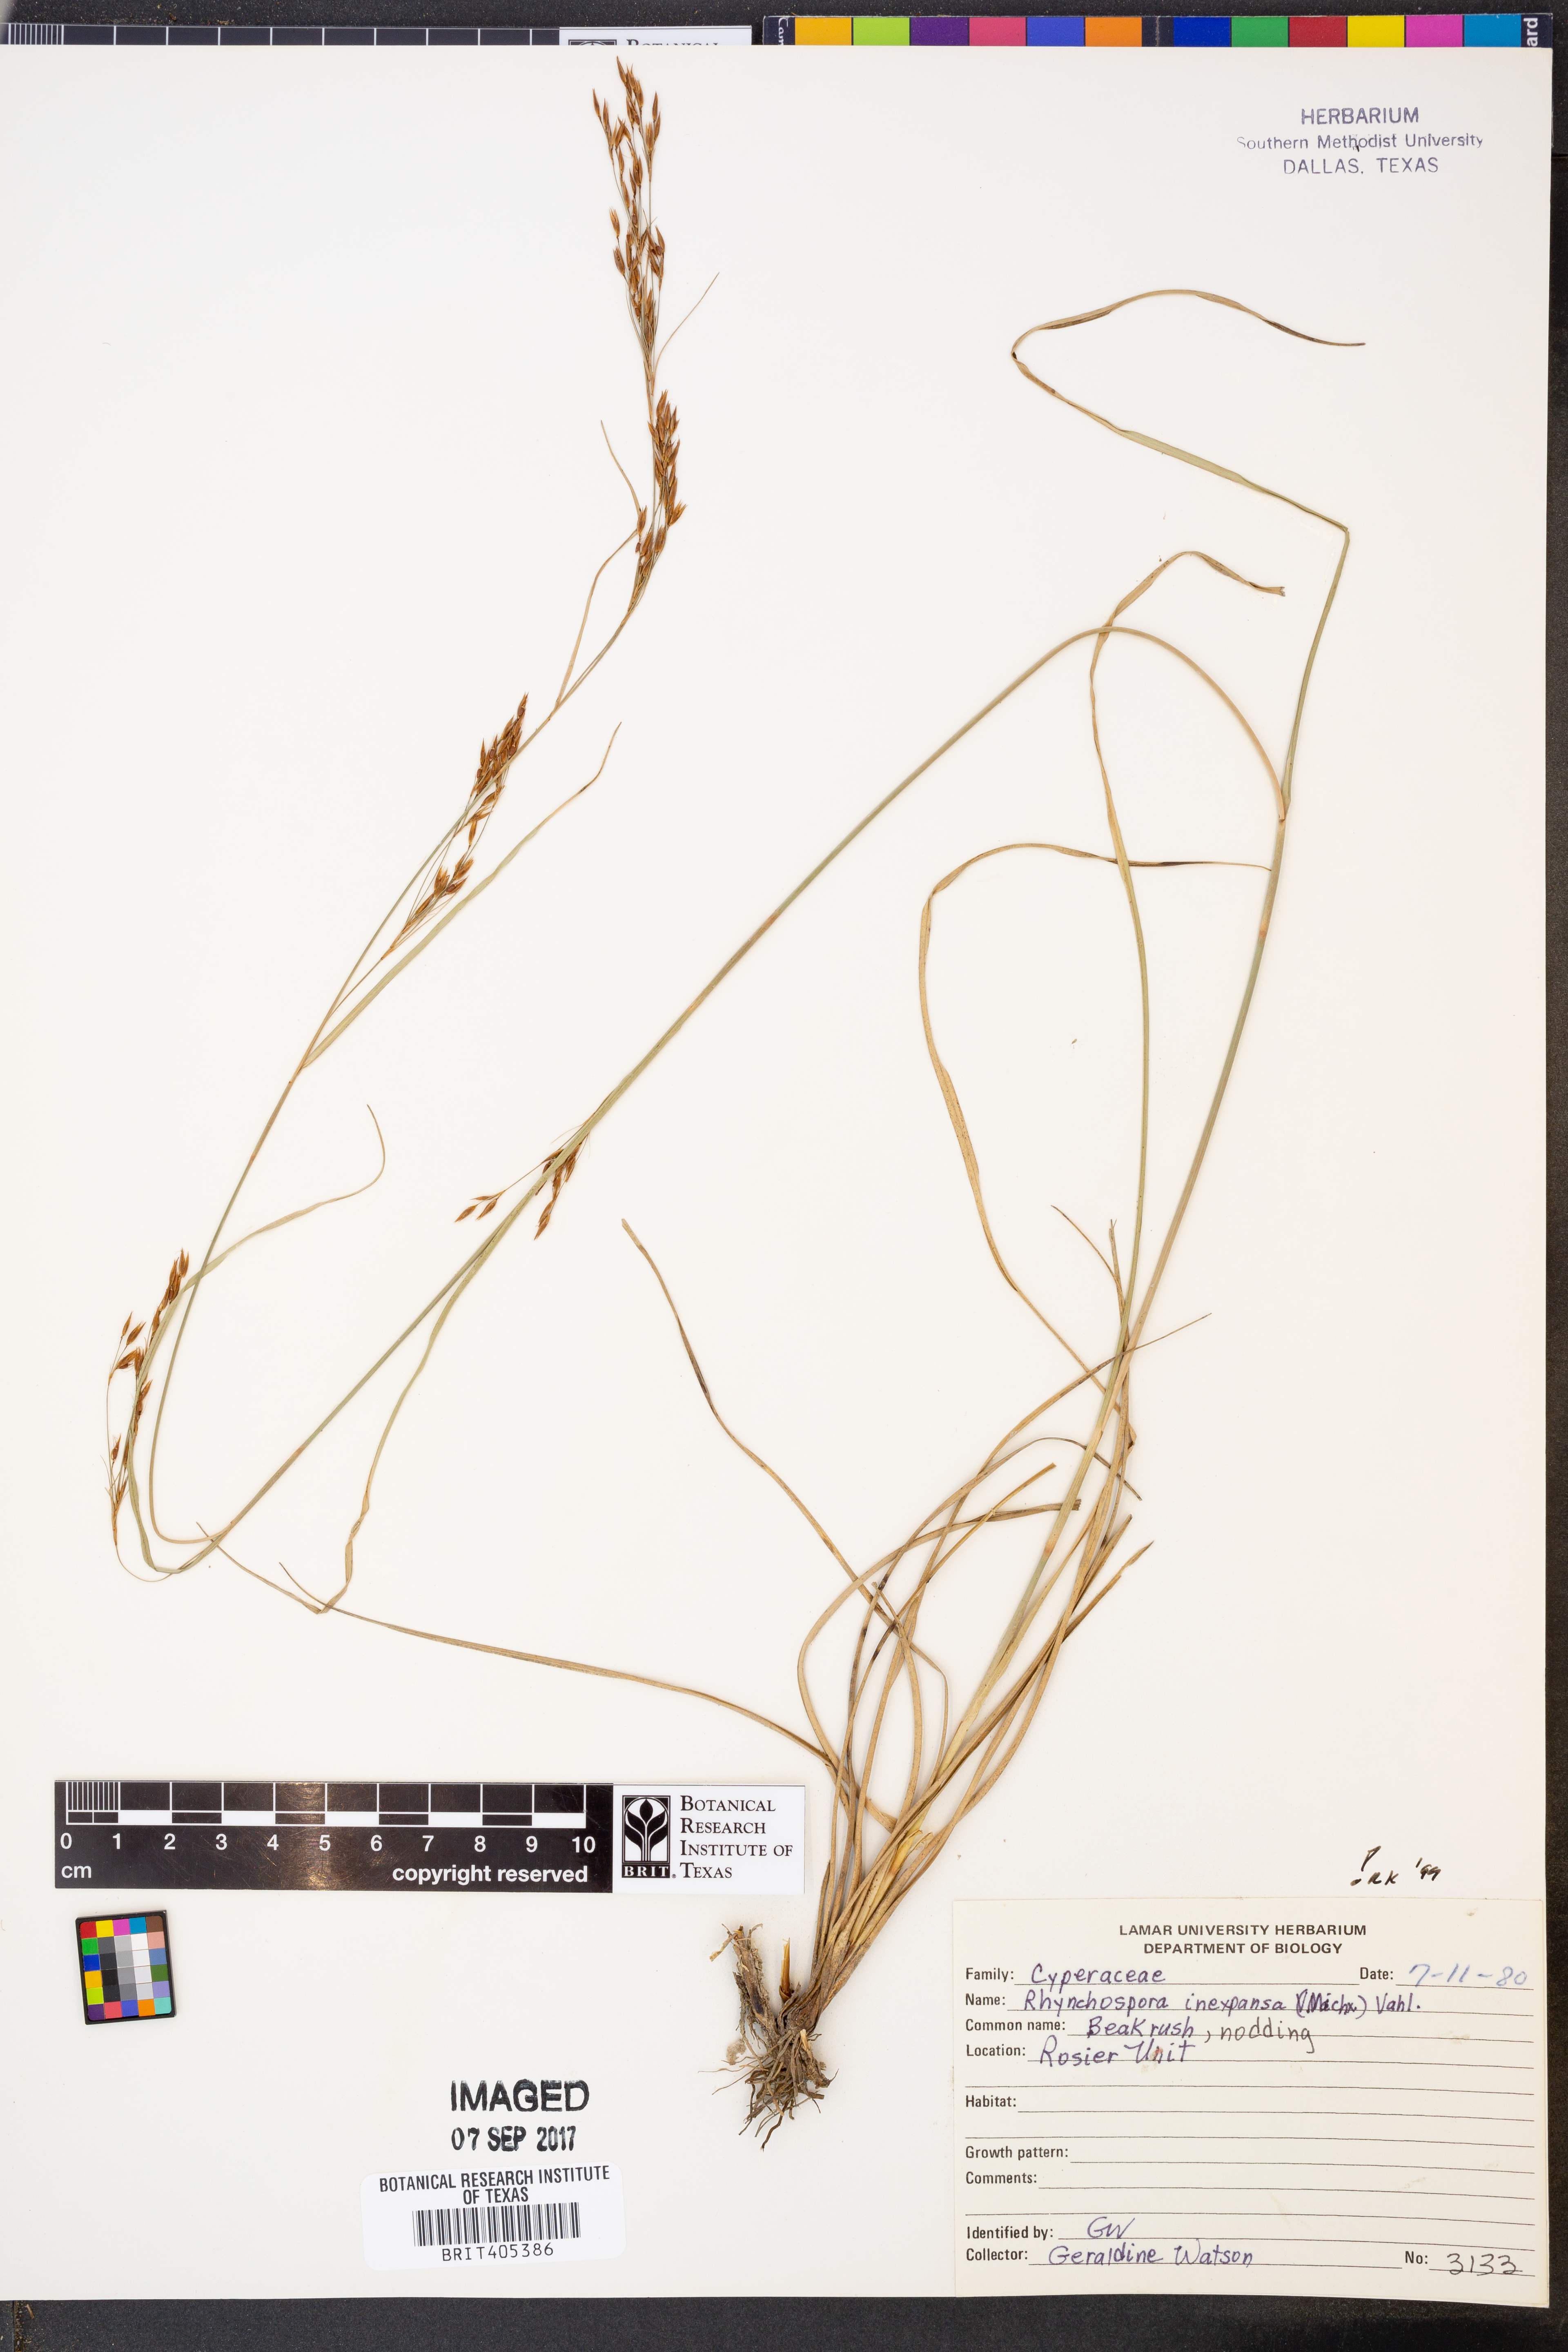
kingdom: Plantae
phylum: Tracheophyta
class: Liliopsida
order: Poales
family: Cyperaceae
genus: Rhynchospora
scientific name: Rhynchospora inexpansa
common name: Nodding beaksedge
